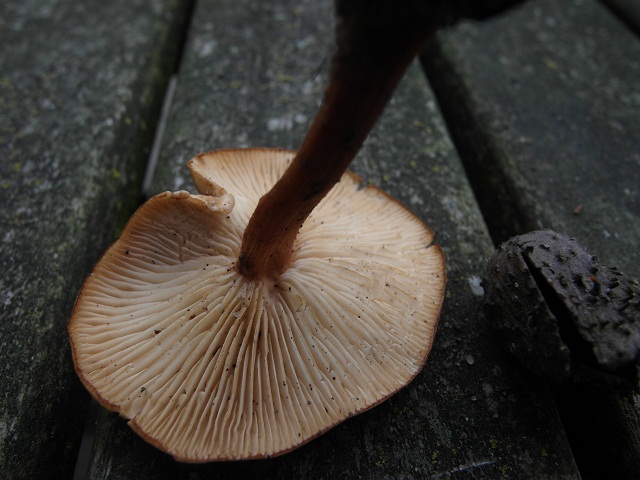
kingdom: Fungi
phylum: Basidiomycota
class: Agaricomycetes
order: Agaricales
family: Omphalotaceae
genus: Gymnopus
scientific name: Gymnopus dryophilus
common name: løv-fladhat
